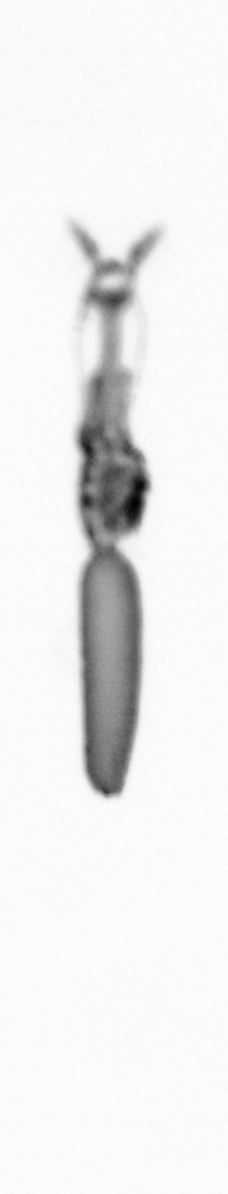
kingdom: Animalia
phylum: Arthropoda
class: Copepoda
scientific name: Copepoda
